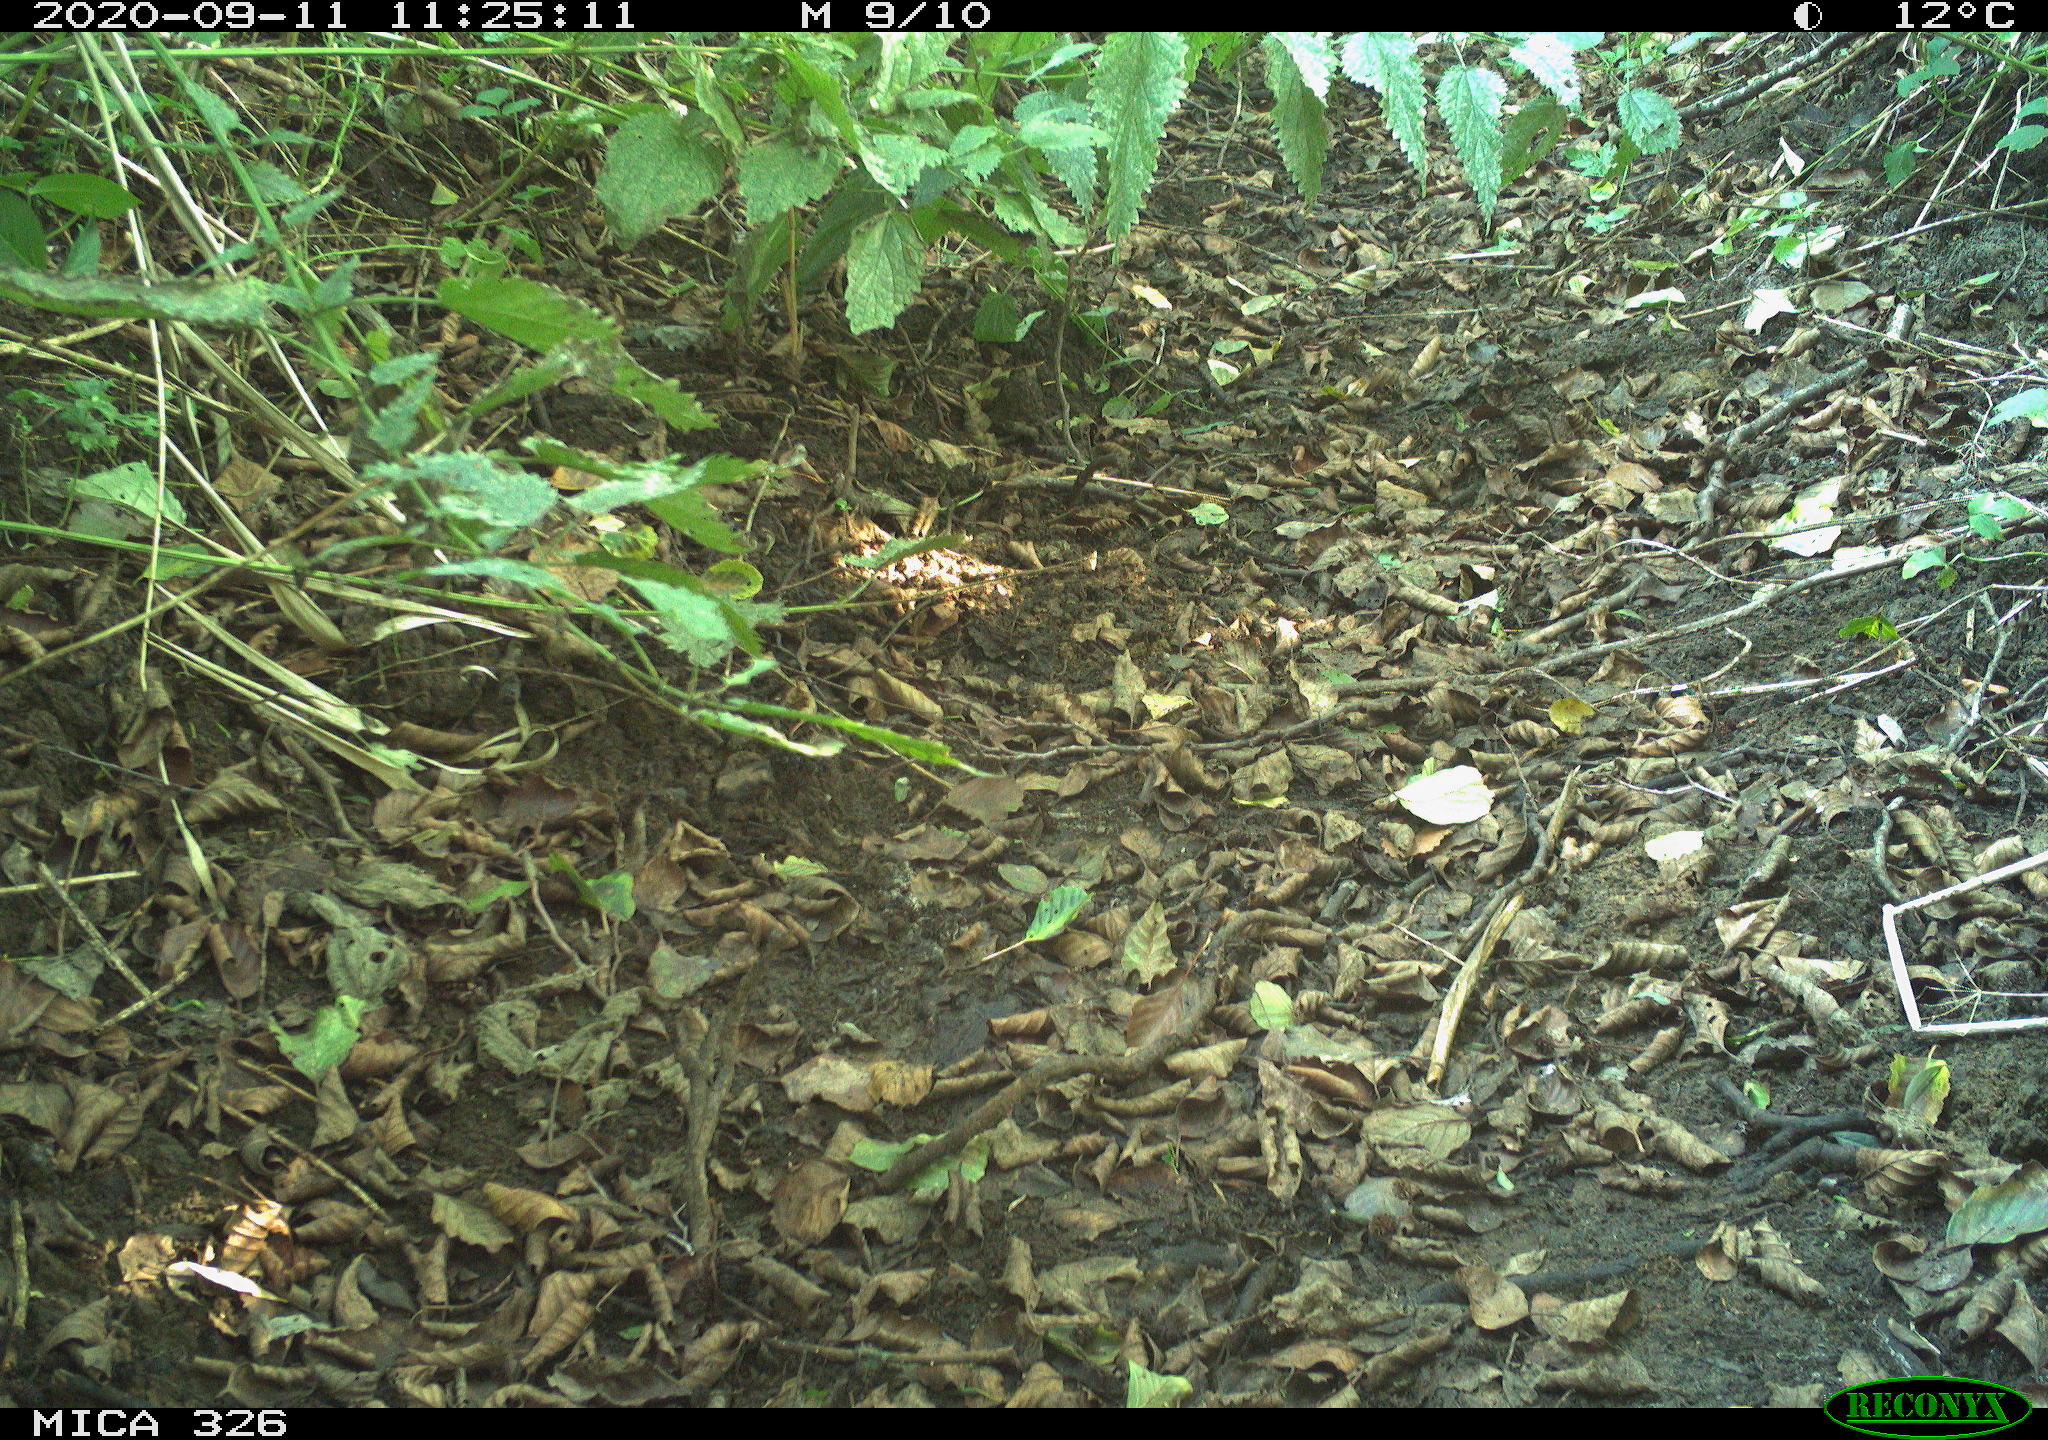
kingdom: Animalia
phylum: Chordata
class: Mammalia
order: Carnivora
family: Felidae
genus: Felis
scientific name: Felis catus
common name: Domestic cat
